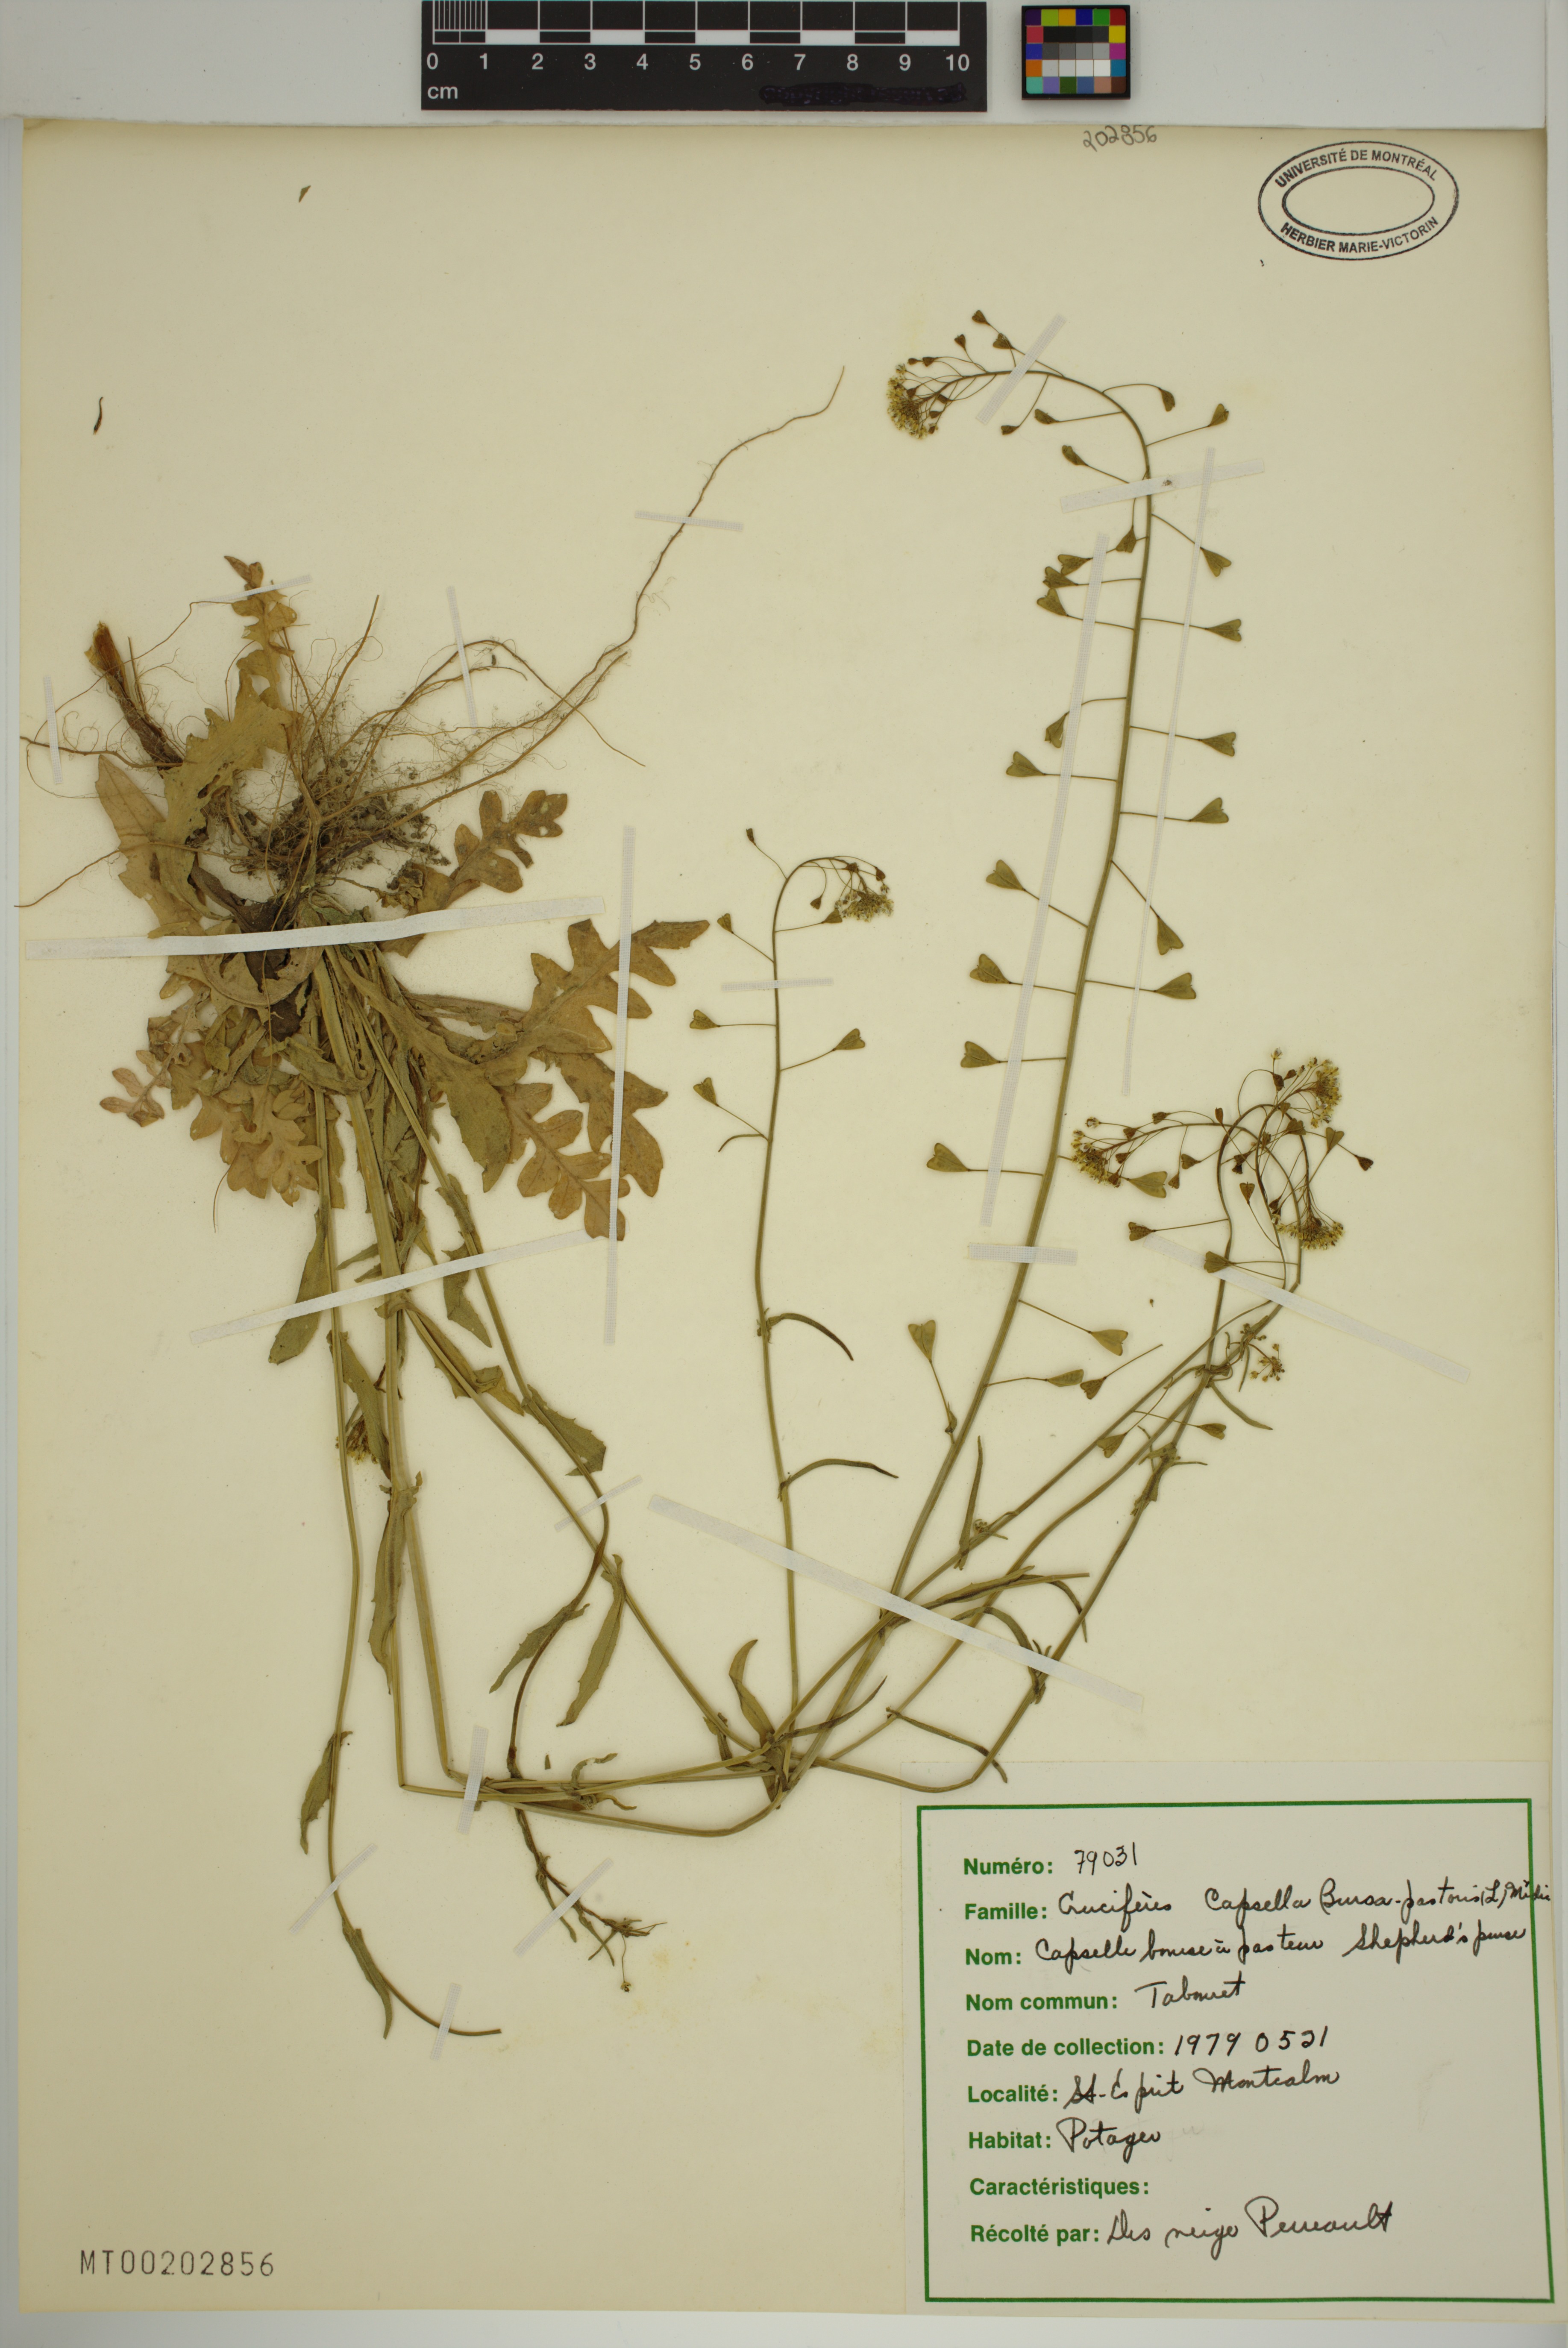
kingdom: Plantae
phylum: Tracheophyta
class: Magnoliopsida
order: Brassicales
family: Brassicaceae
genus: Capsella
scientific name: Capsella bursa-pastoris
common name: Shepherd's purse
